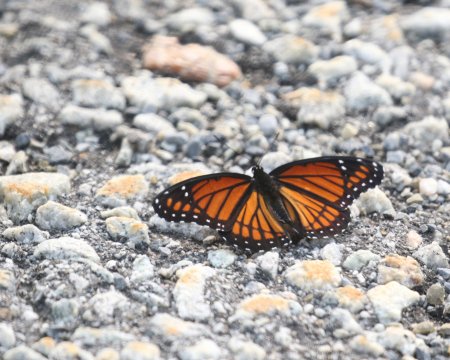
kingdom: Animalia
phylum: Arthropoda
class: Insecta
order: Lepidoptera
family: Nymphalidae
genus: Limenitis
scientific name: Limenitis archippus
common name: Viceroy
